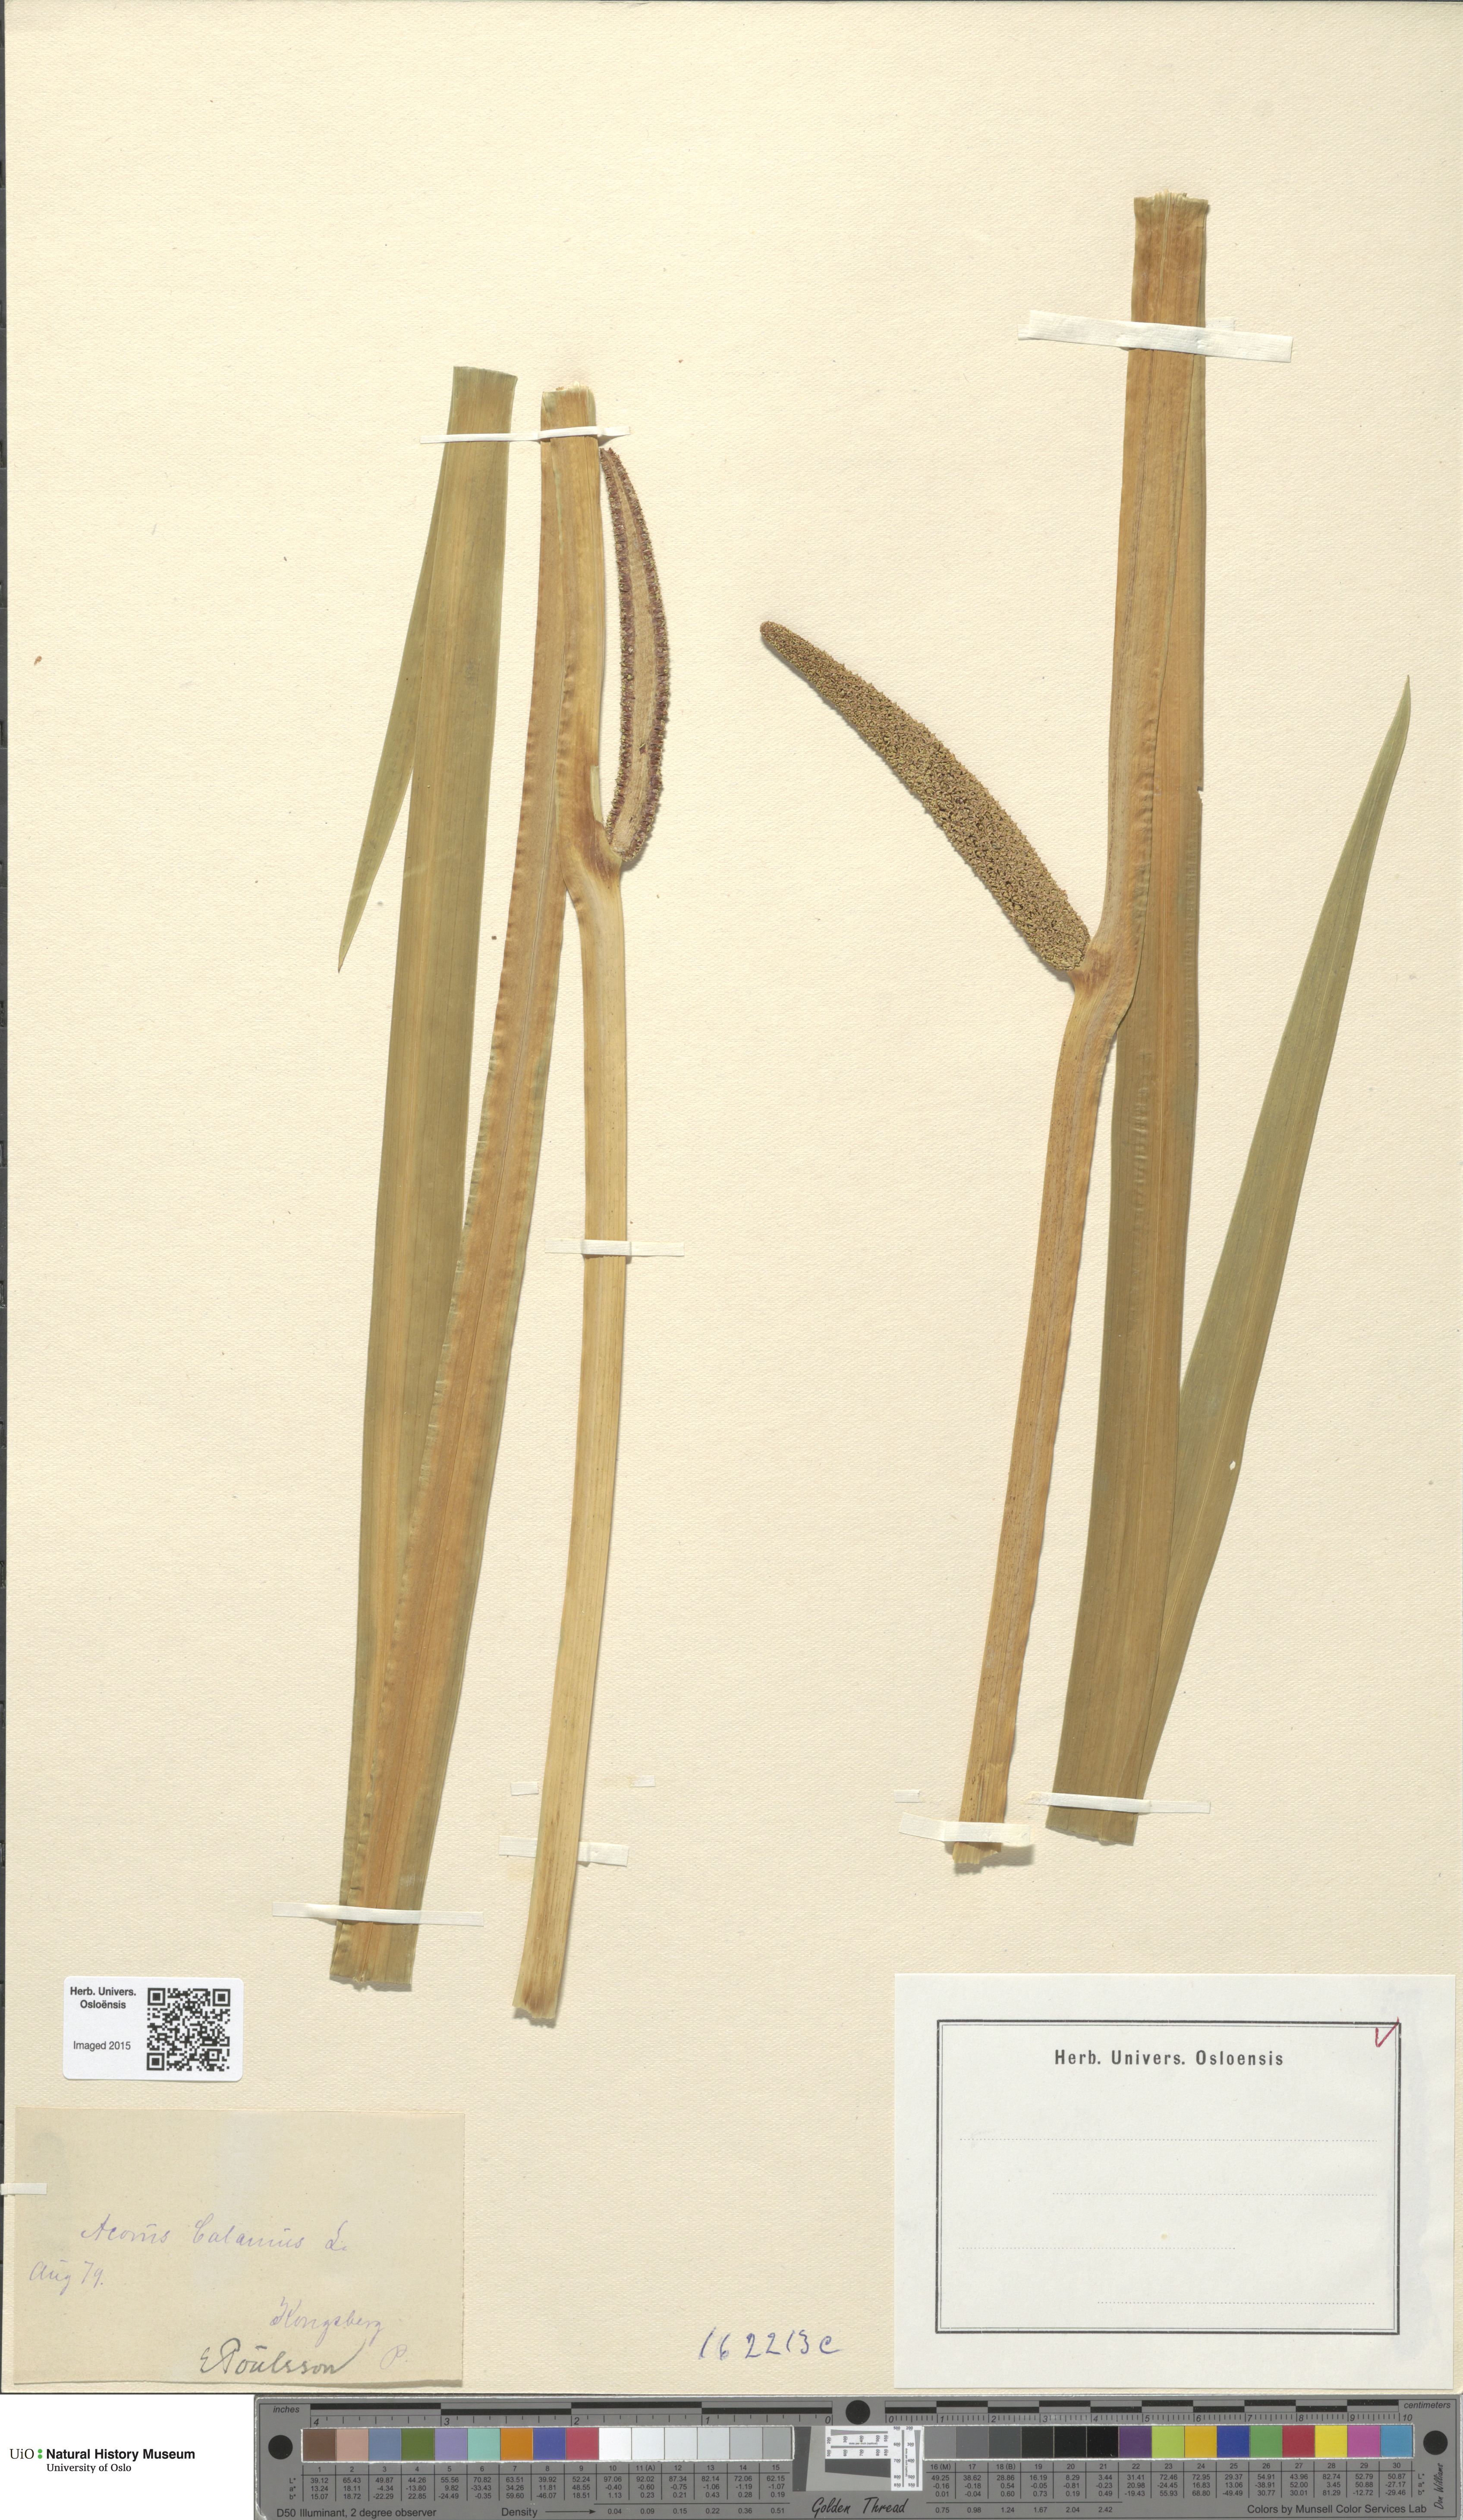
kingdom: Plantae
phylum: Tracheophyta
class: Liliopsida
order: Acorales
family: Acoraceae
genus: Acorus
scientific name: Acorus calamus
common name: Sweet-flag
